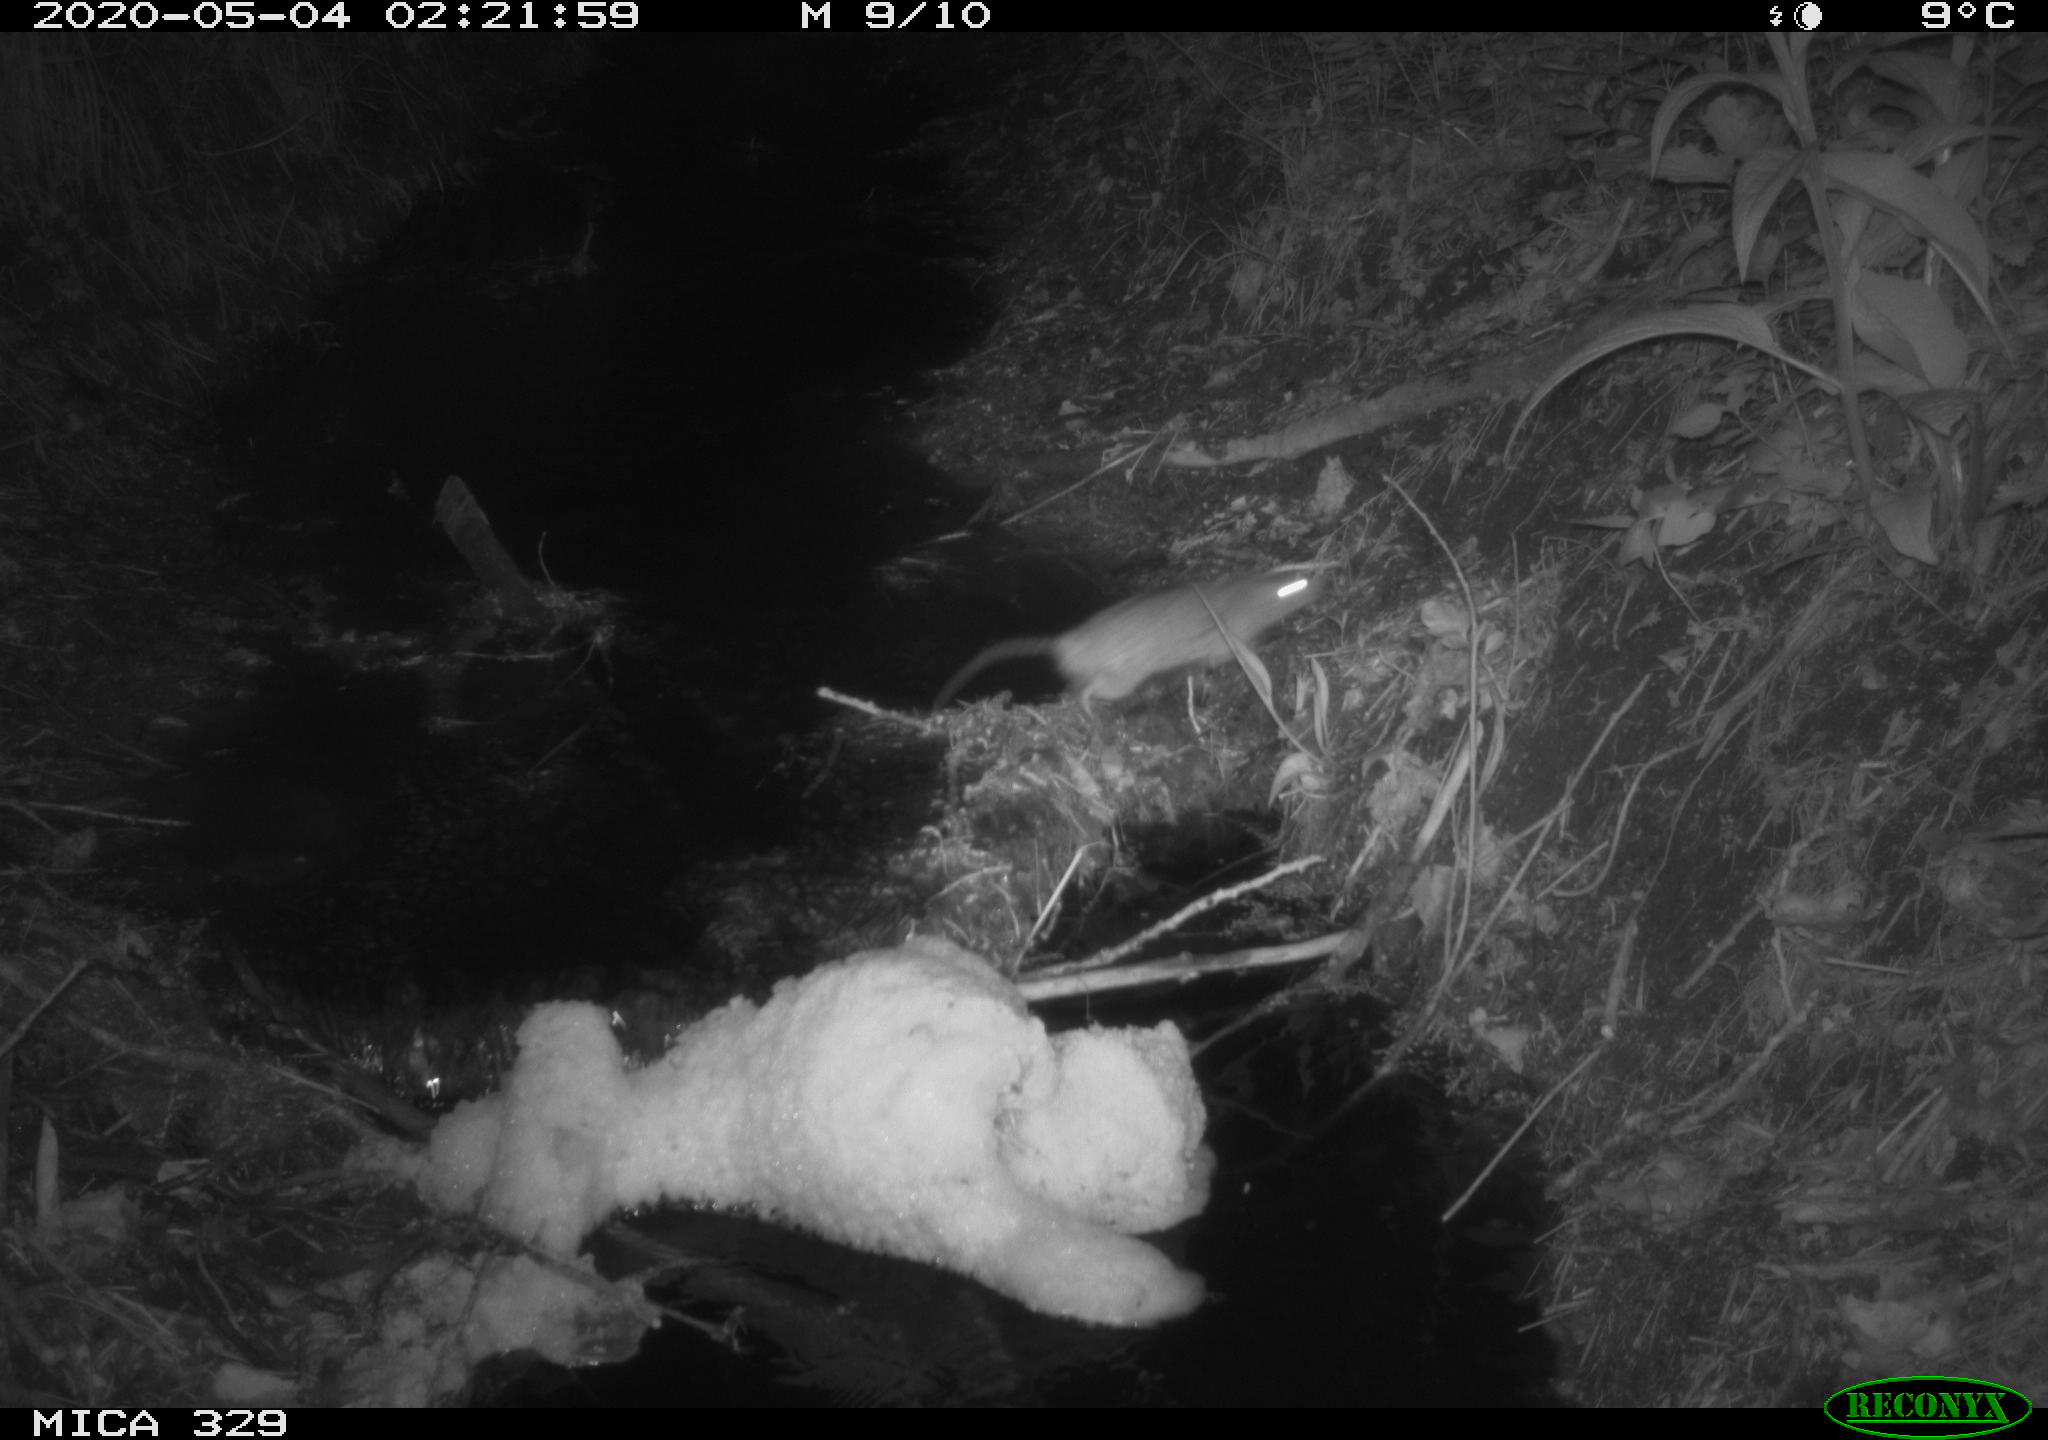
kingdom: Animalia
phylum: Chordata
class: Mammalia
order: Rodentia
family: Muridae
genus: Rattus
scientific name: Rattus norvegicus
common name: Brown rat
